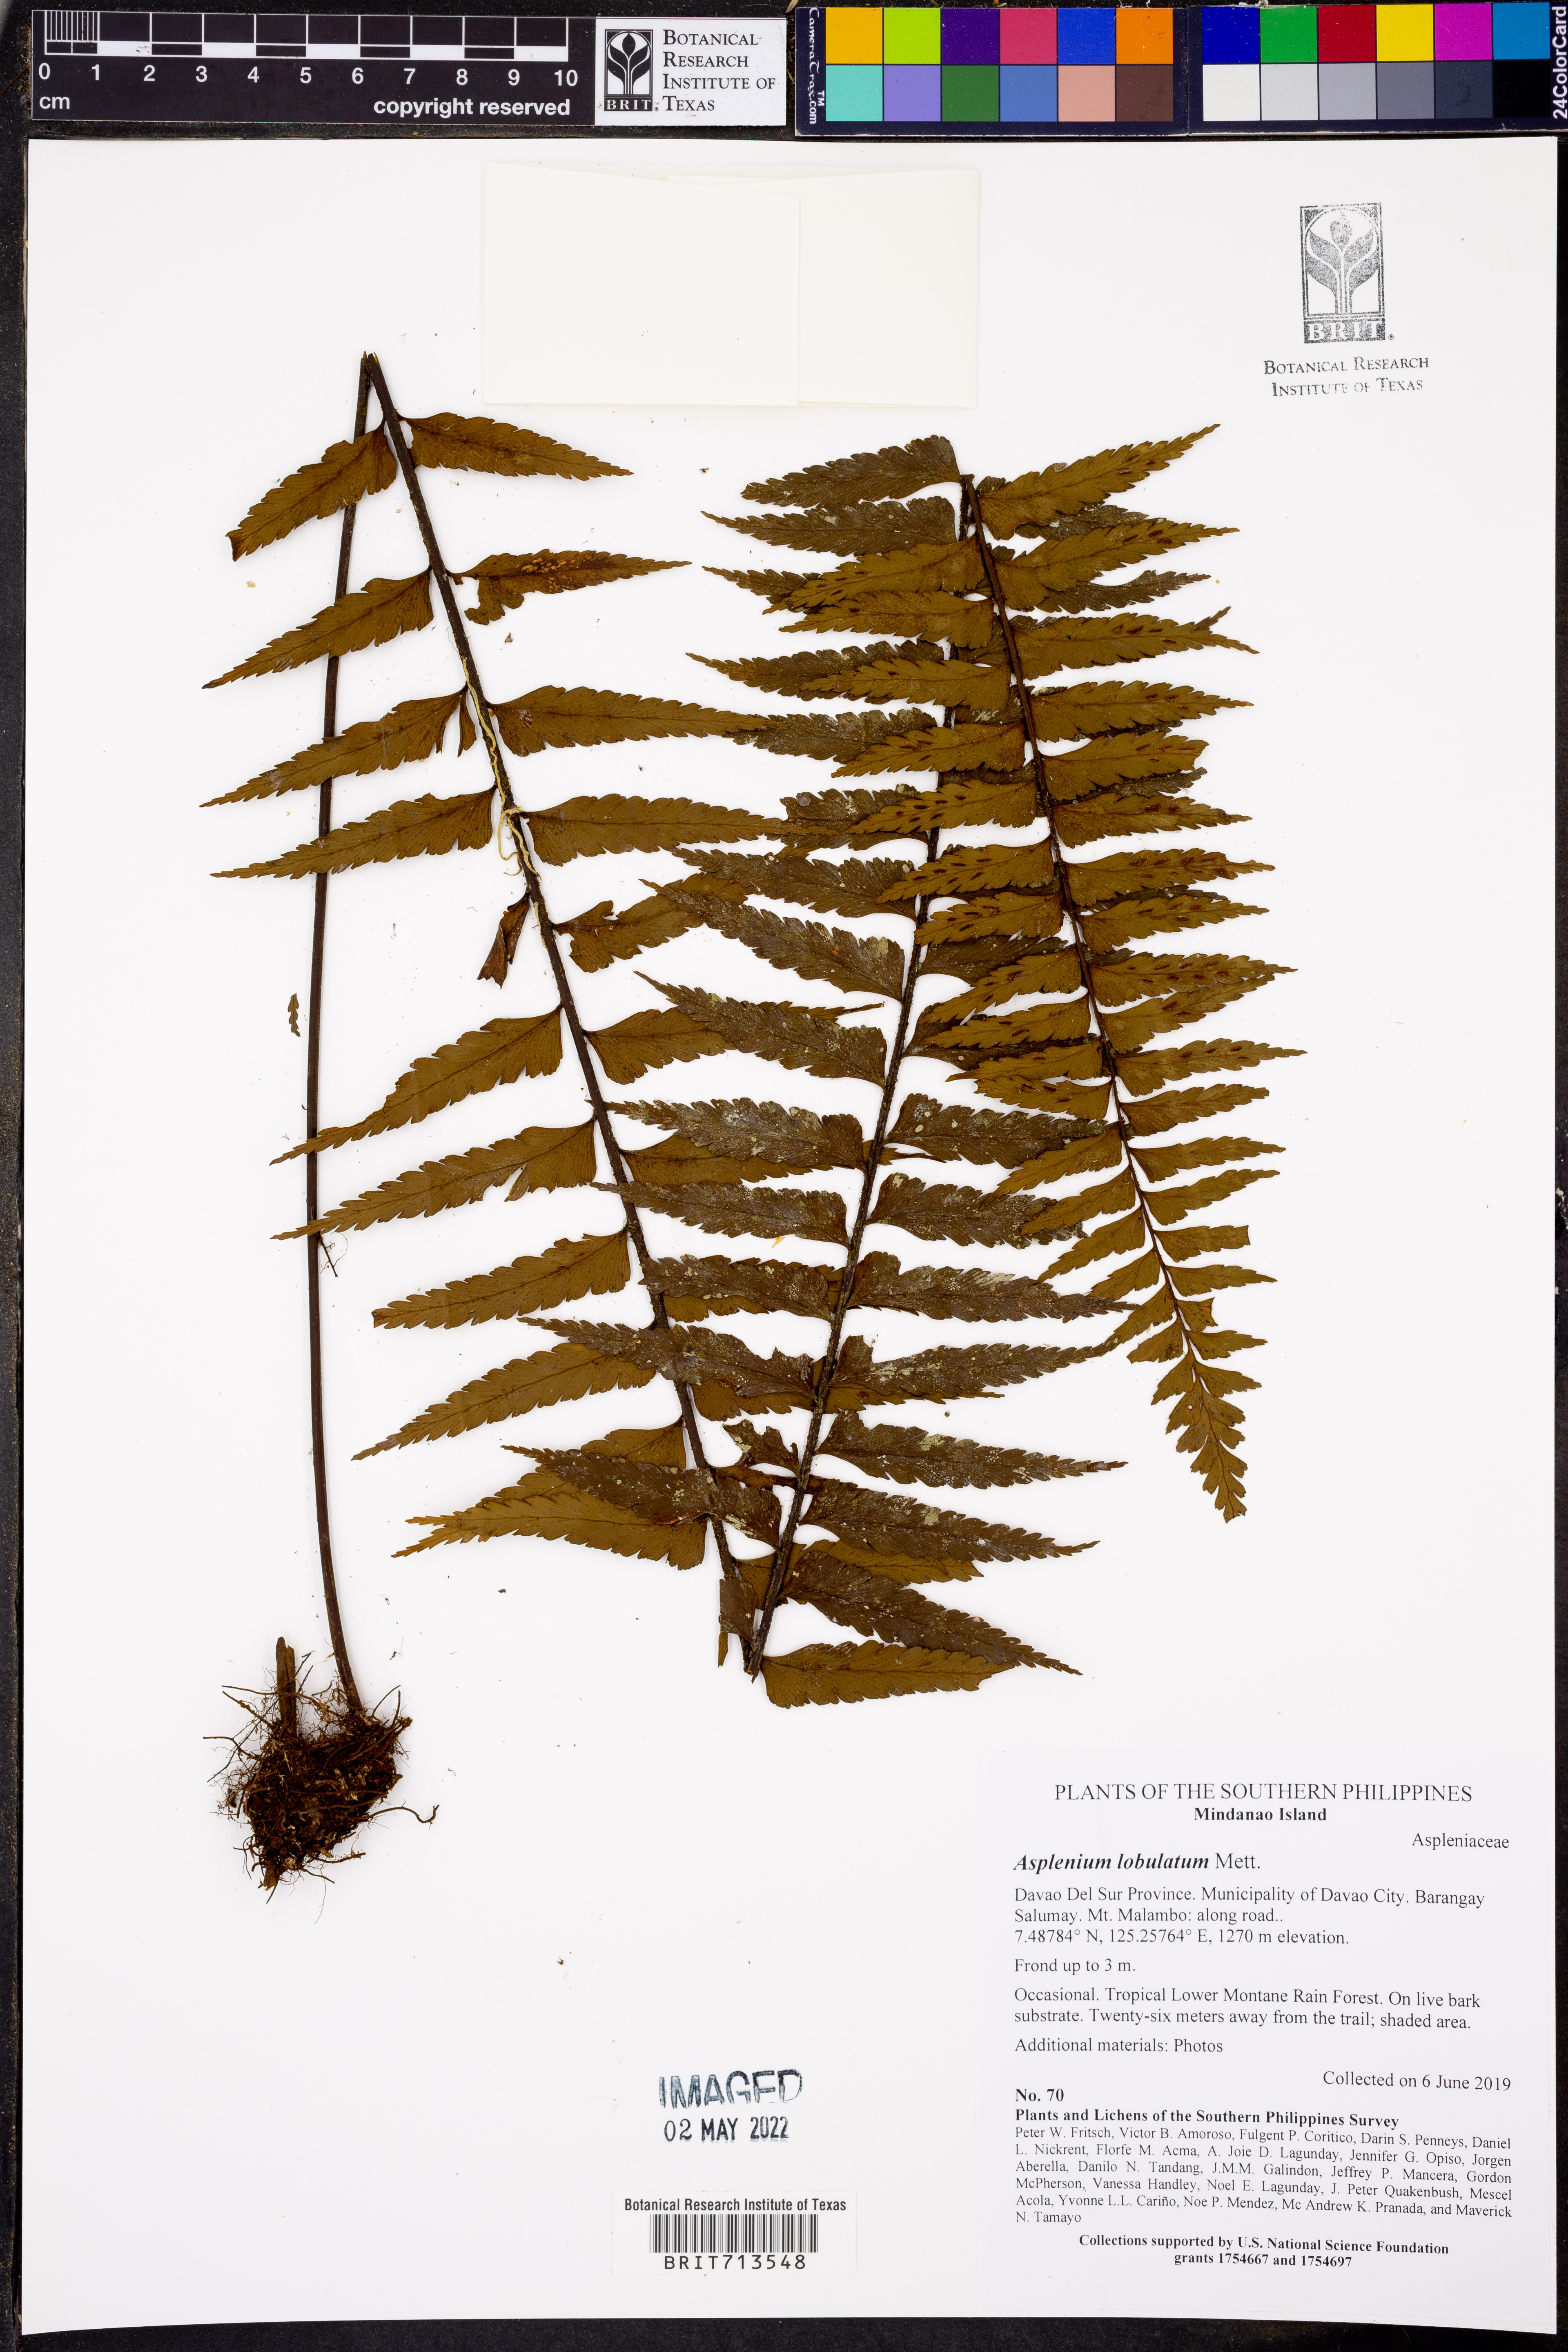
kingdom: Plantae
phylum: Tracheophyta
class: Polypodiopsida
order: Polypodiales
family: Aspleniaceae
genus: Asplenium
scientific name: Asplenium lobulatum
